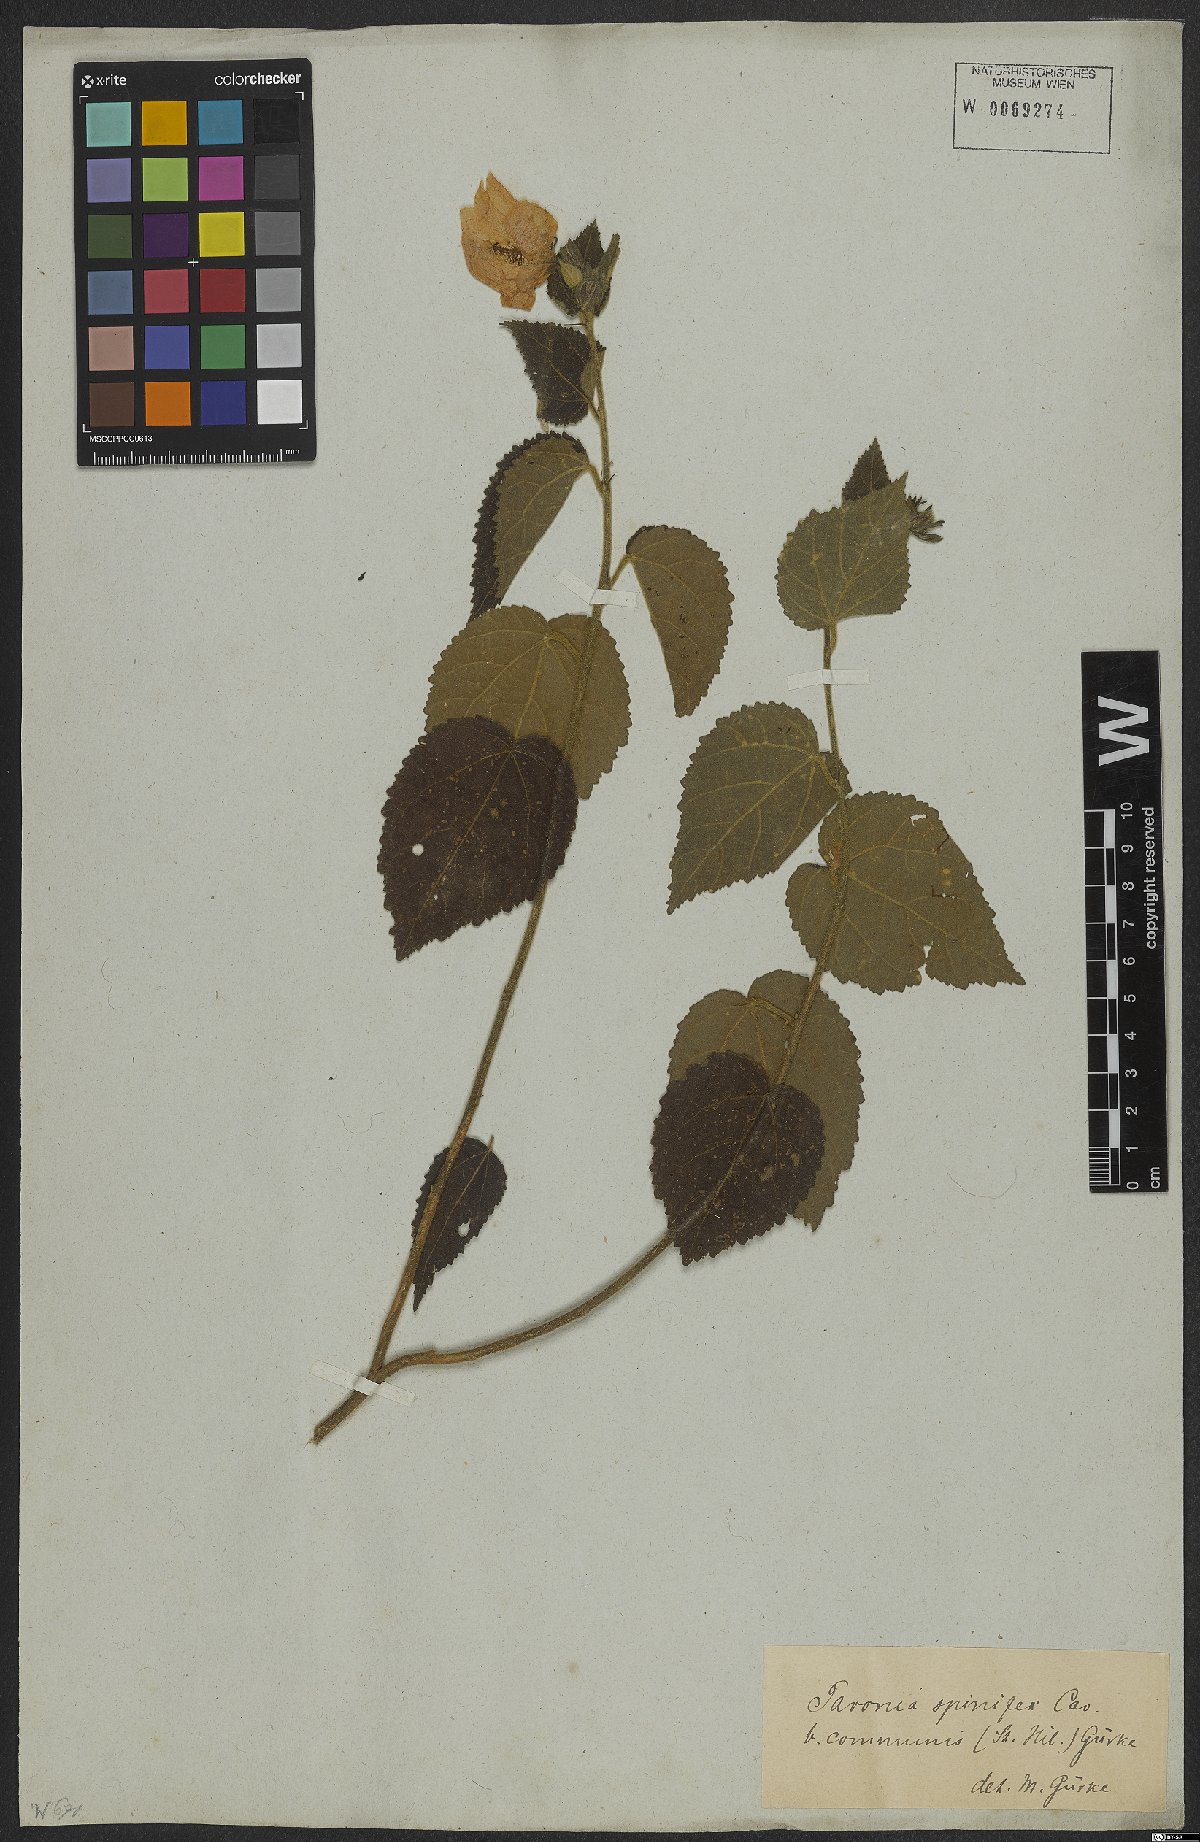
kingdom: Plantae
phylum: Tracheophyta
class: Magnoliopsida
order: Malvales
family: Malvaceae
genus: Pavonia
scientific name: Pavonia communis
